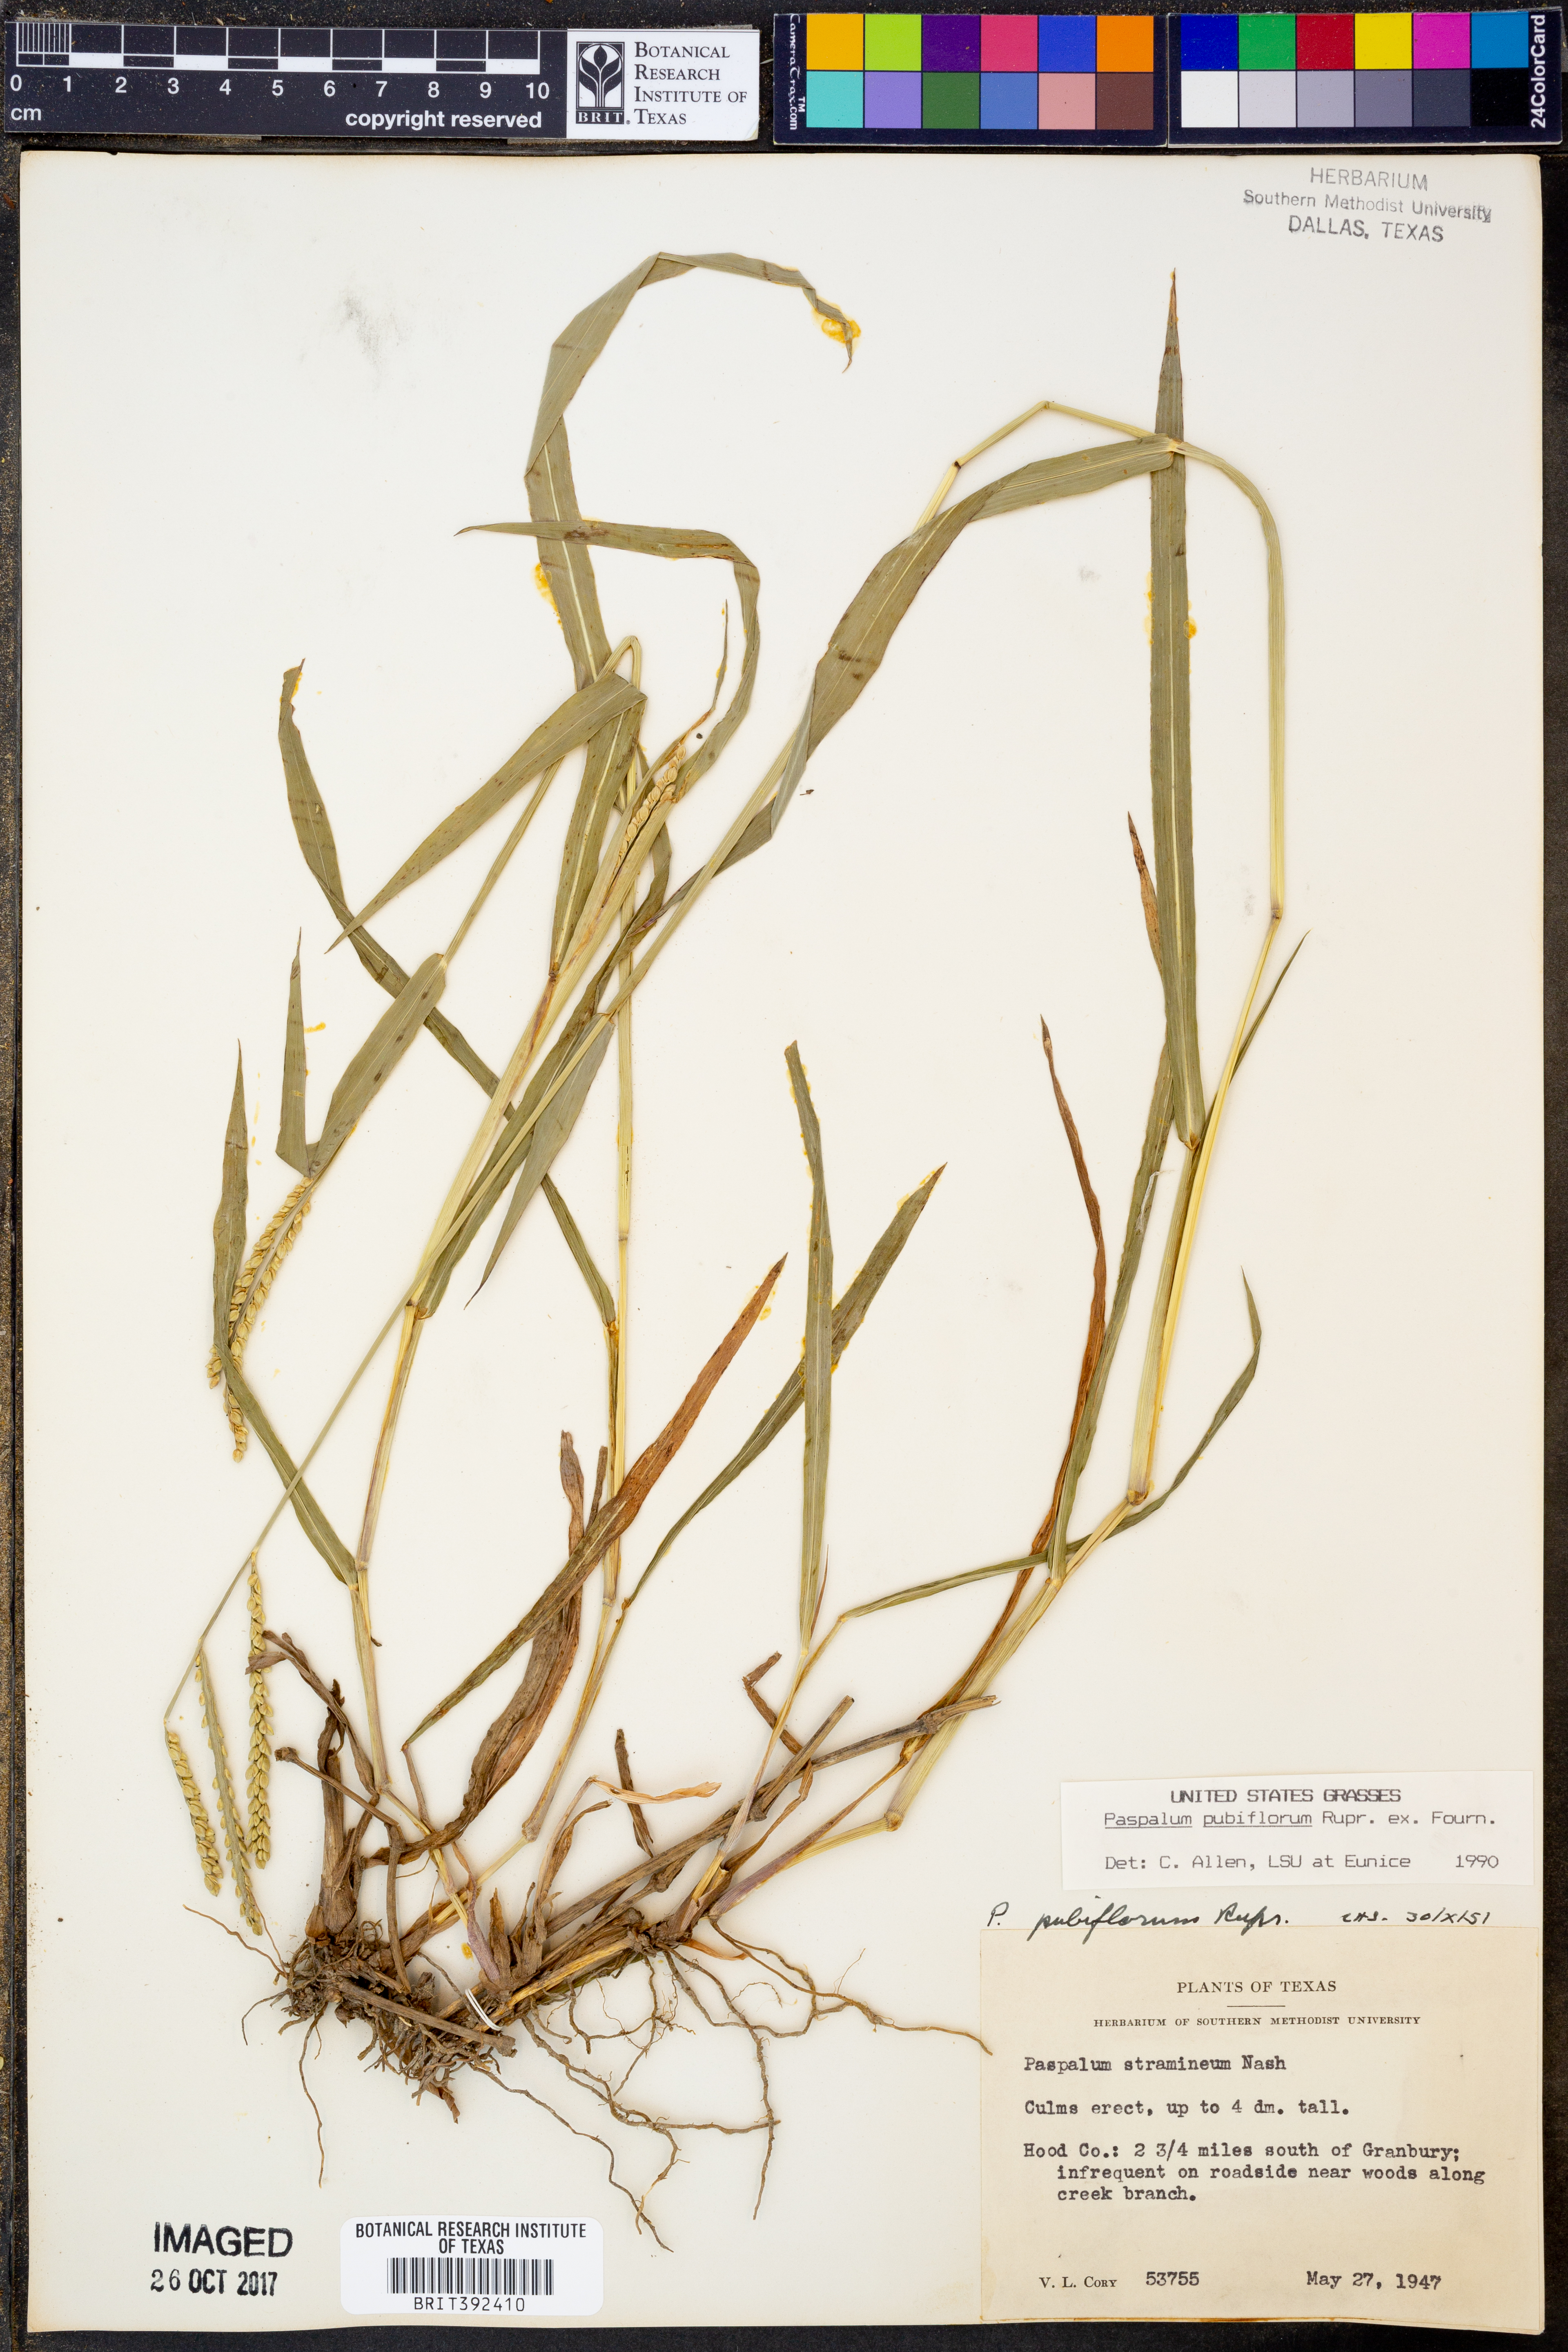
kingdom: Plantae
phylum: Tracheophyta
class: Liliopsida
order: Poales
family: Poaceae
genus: Paspalum
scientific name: Paspalum pubiflorum
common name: Hairy-seed paspalum
